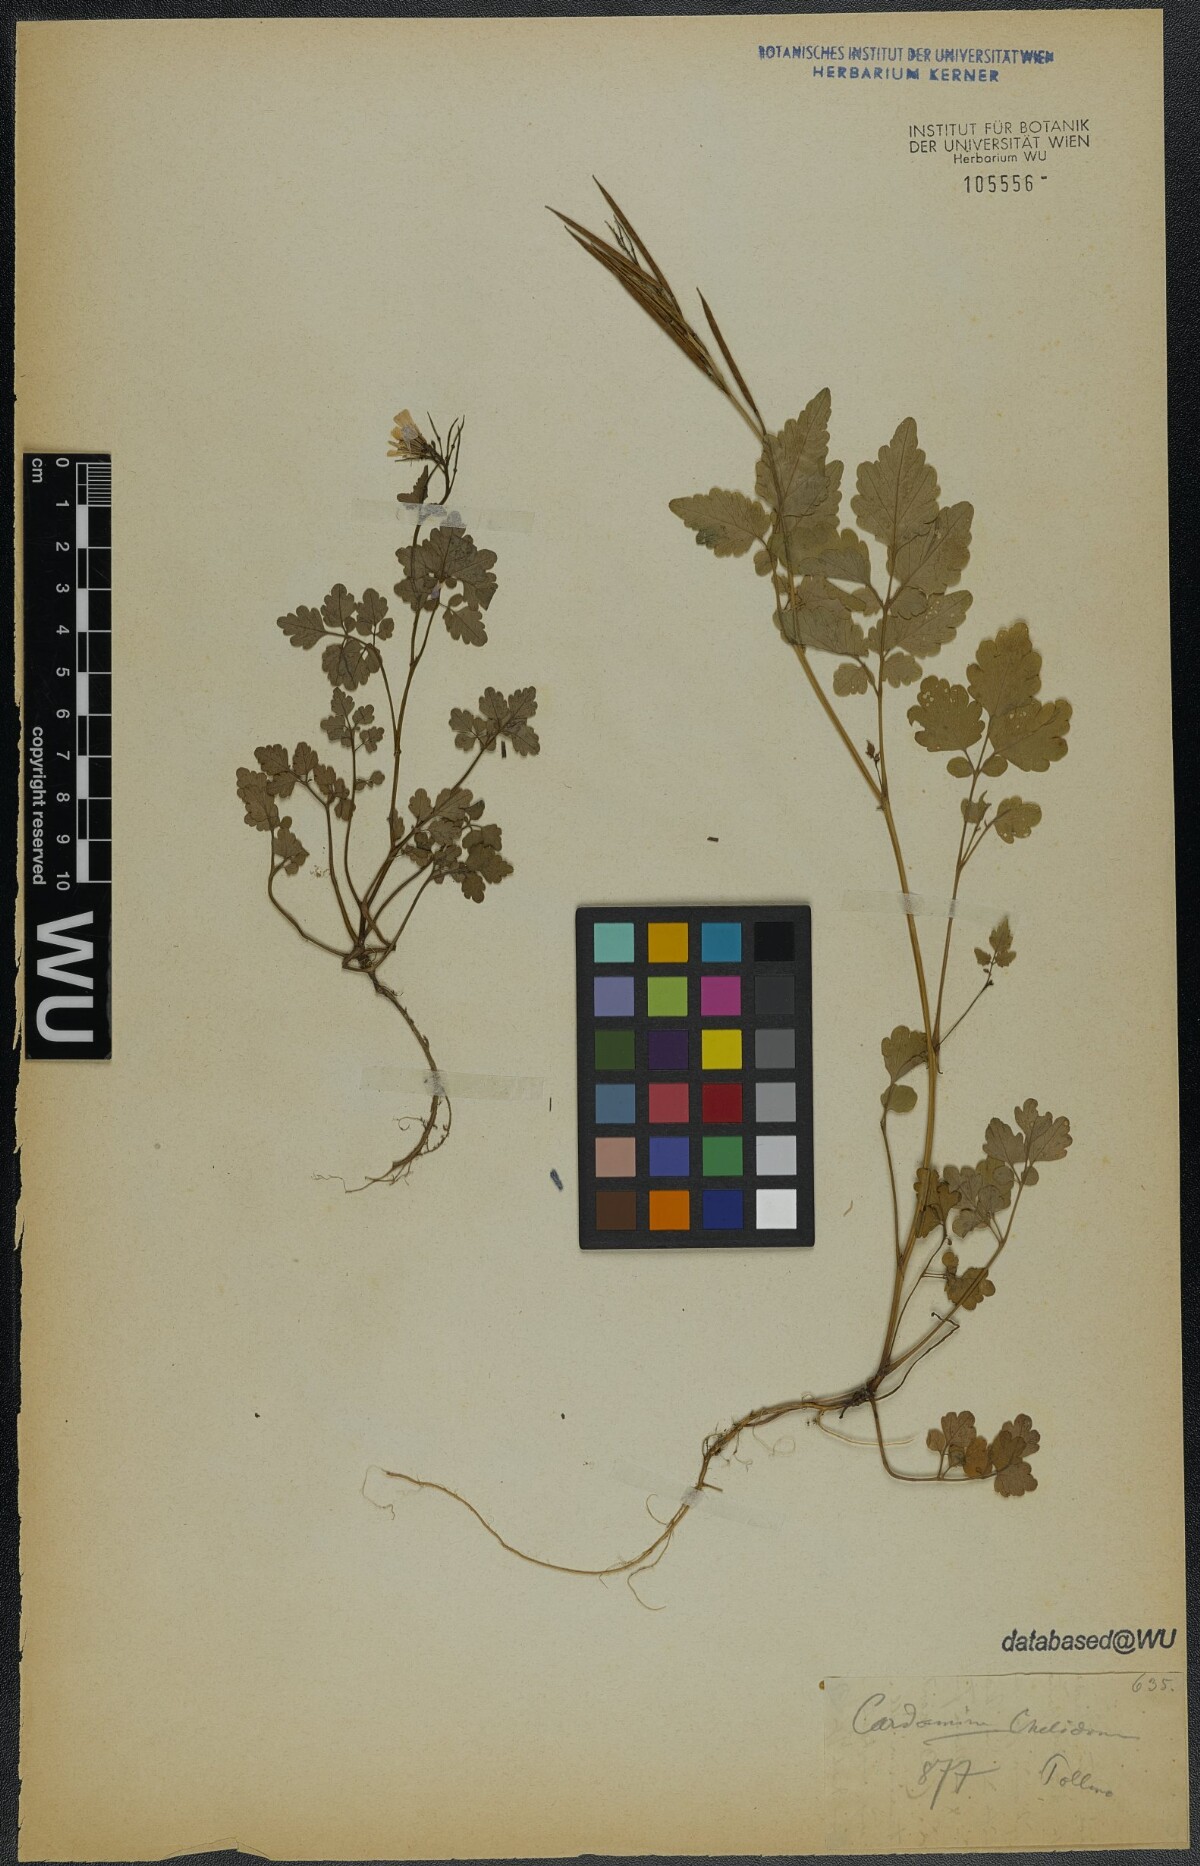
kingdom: Plantae
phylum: Tracheophyta
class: Magnoliopsida
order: Brassicales
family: Brassicaceae
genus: Cardamine
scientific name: Cardamine chelidonia
